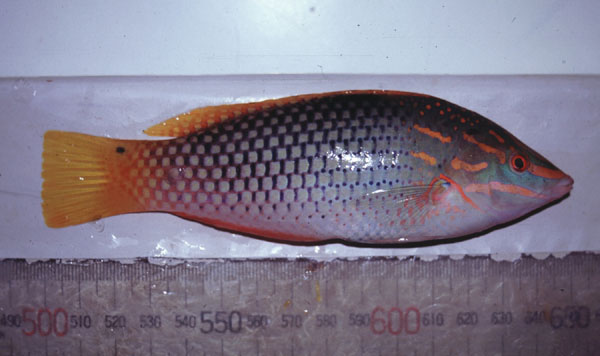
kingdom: Animalia
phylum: Chordata
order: Perciformes
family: Labridae
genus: Halichoeres
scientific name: Halichoeres hortulanus
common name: Checkerboard wrasse
